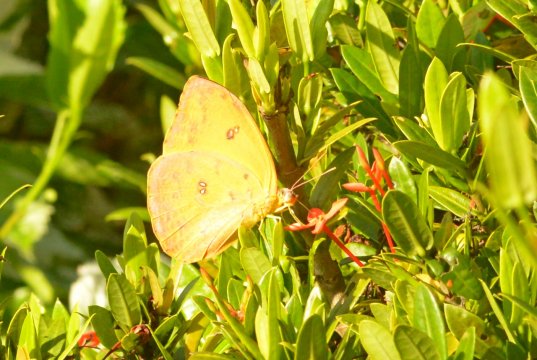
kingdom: Animalia
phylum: Arthropoda
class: Insecta
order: Lepidoptera
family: Pieridae
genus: Phoebis
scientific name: Phoebis philea
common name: Orange-barred Sulphur
